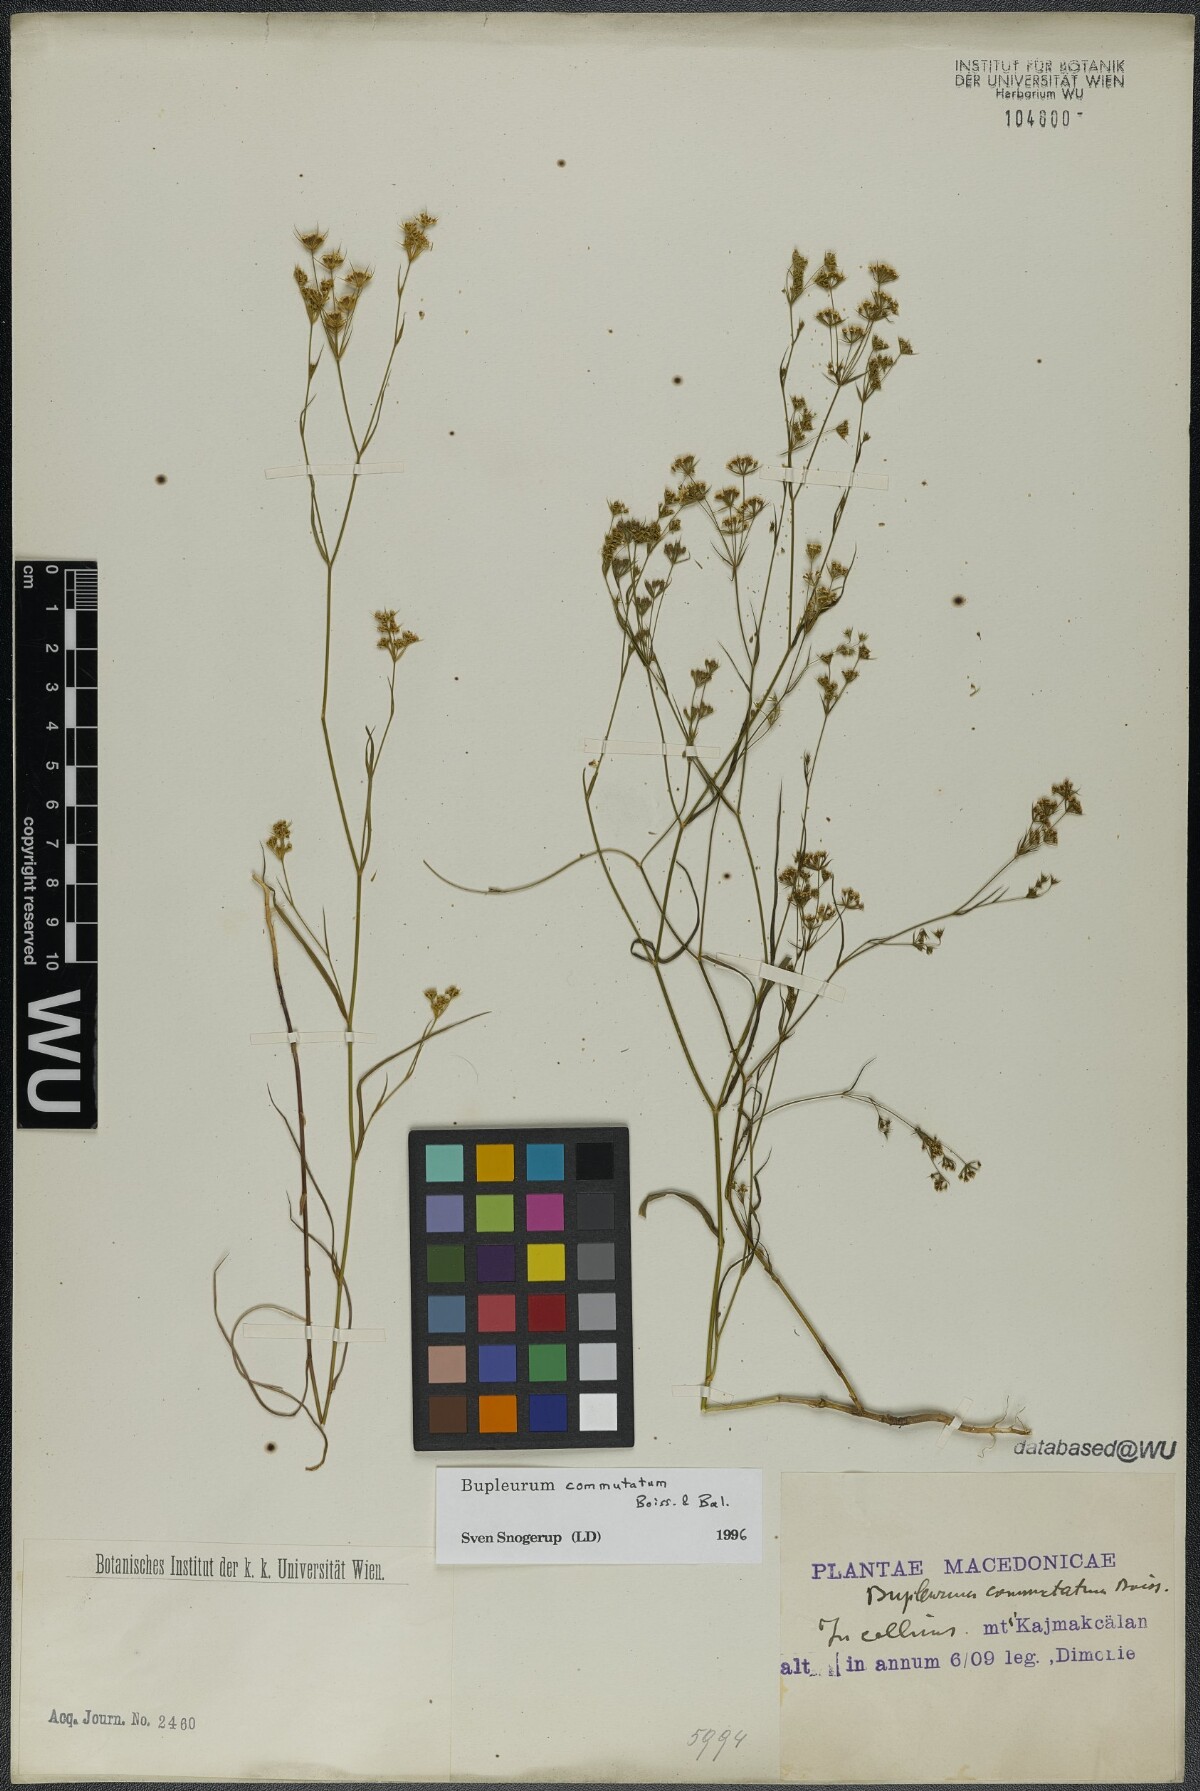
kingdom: Plantae
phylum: Tracheophyta
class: Magnoliopsida
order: Apiales
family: Apiaceae
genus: Bupleurum
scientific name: Bupleurum commutatum
